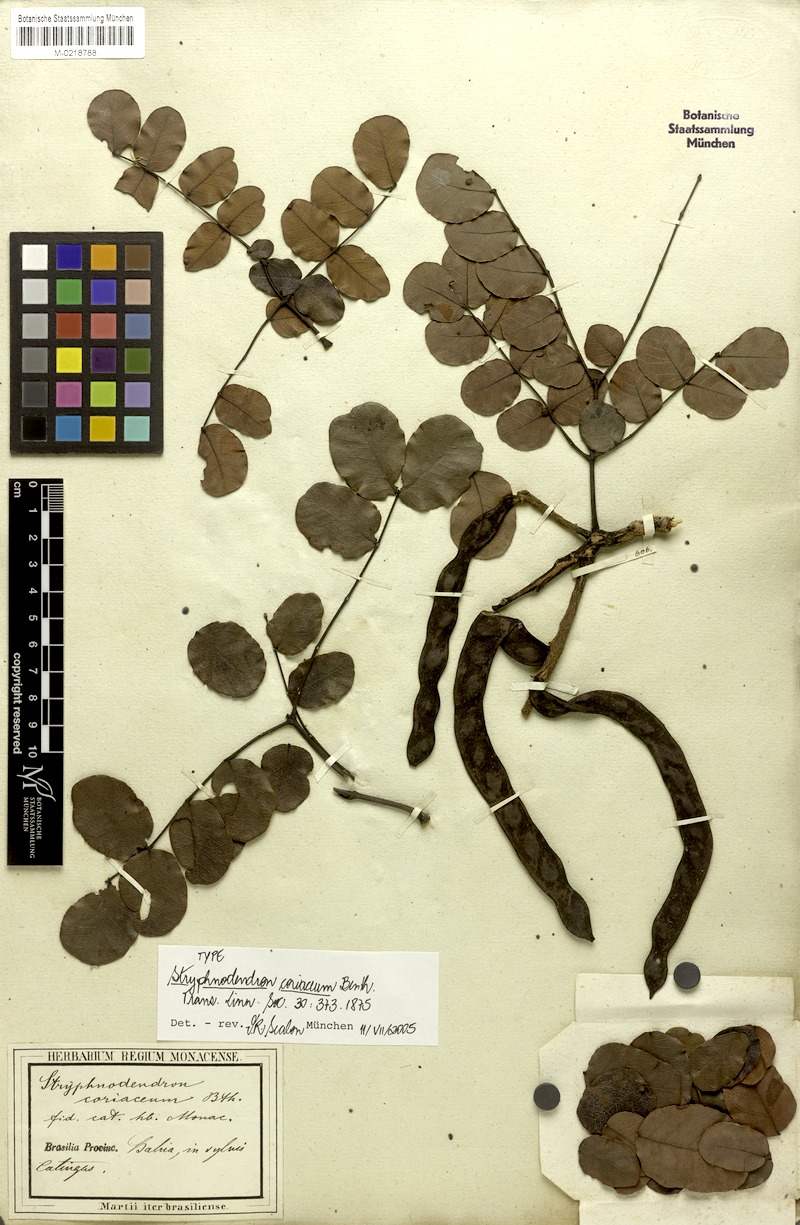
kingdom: Plantae
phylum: Tracheophyta
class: Magnoliopsida
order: Fabales
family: Fabaceae
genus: Stryphnodendron
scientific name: Stryphnodendron coriaceum
